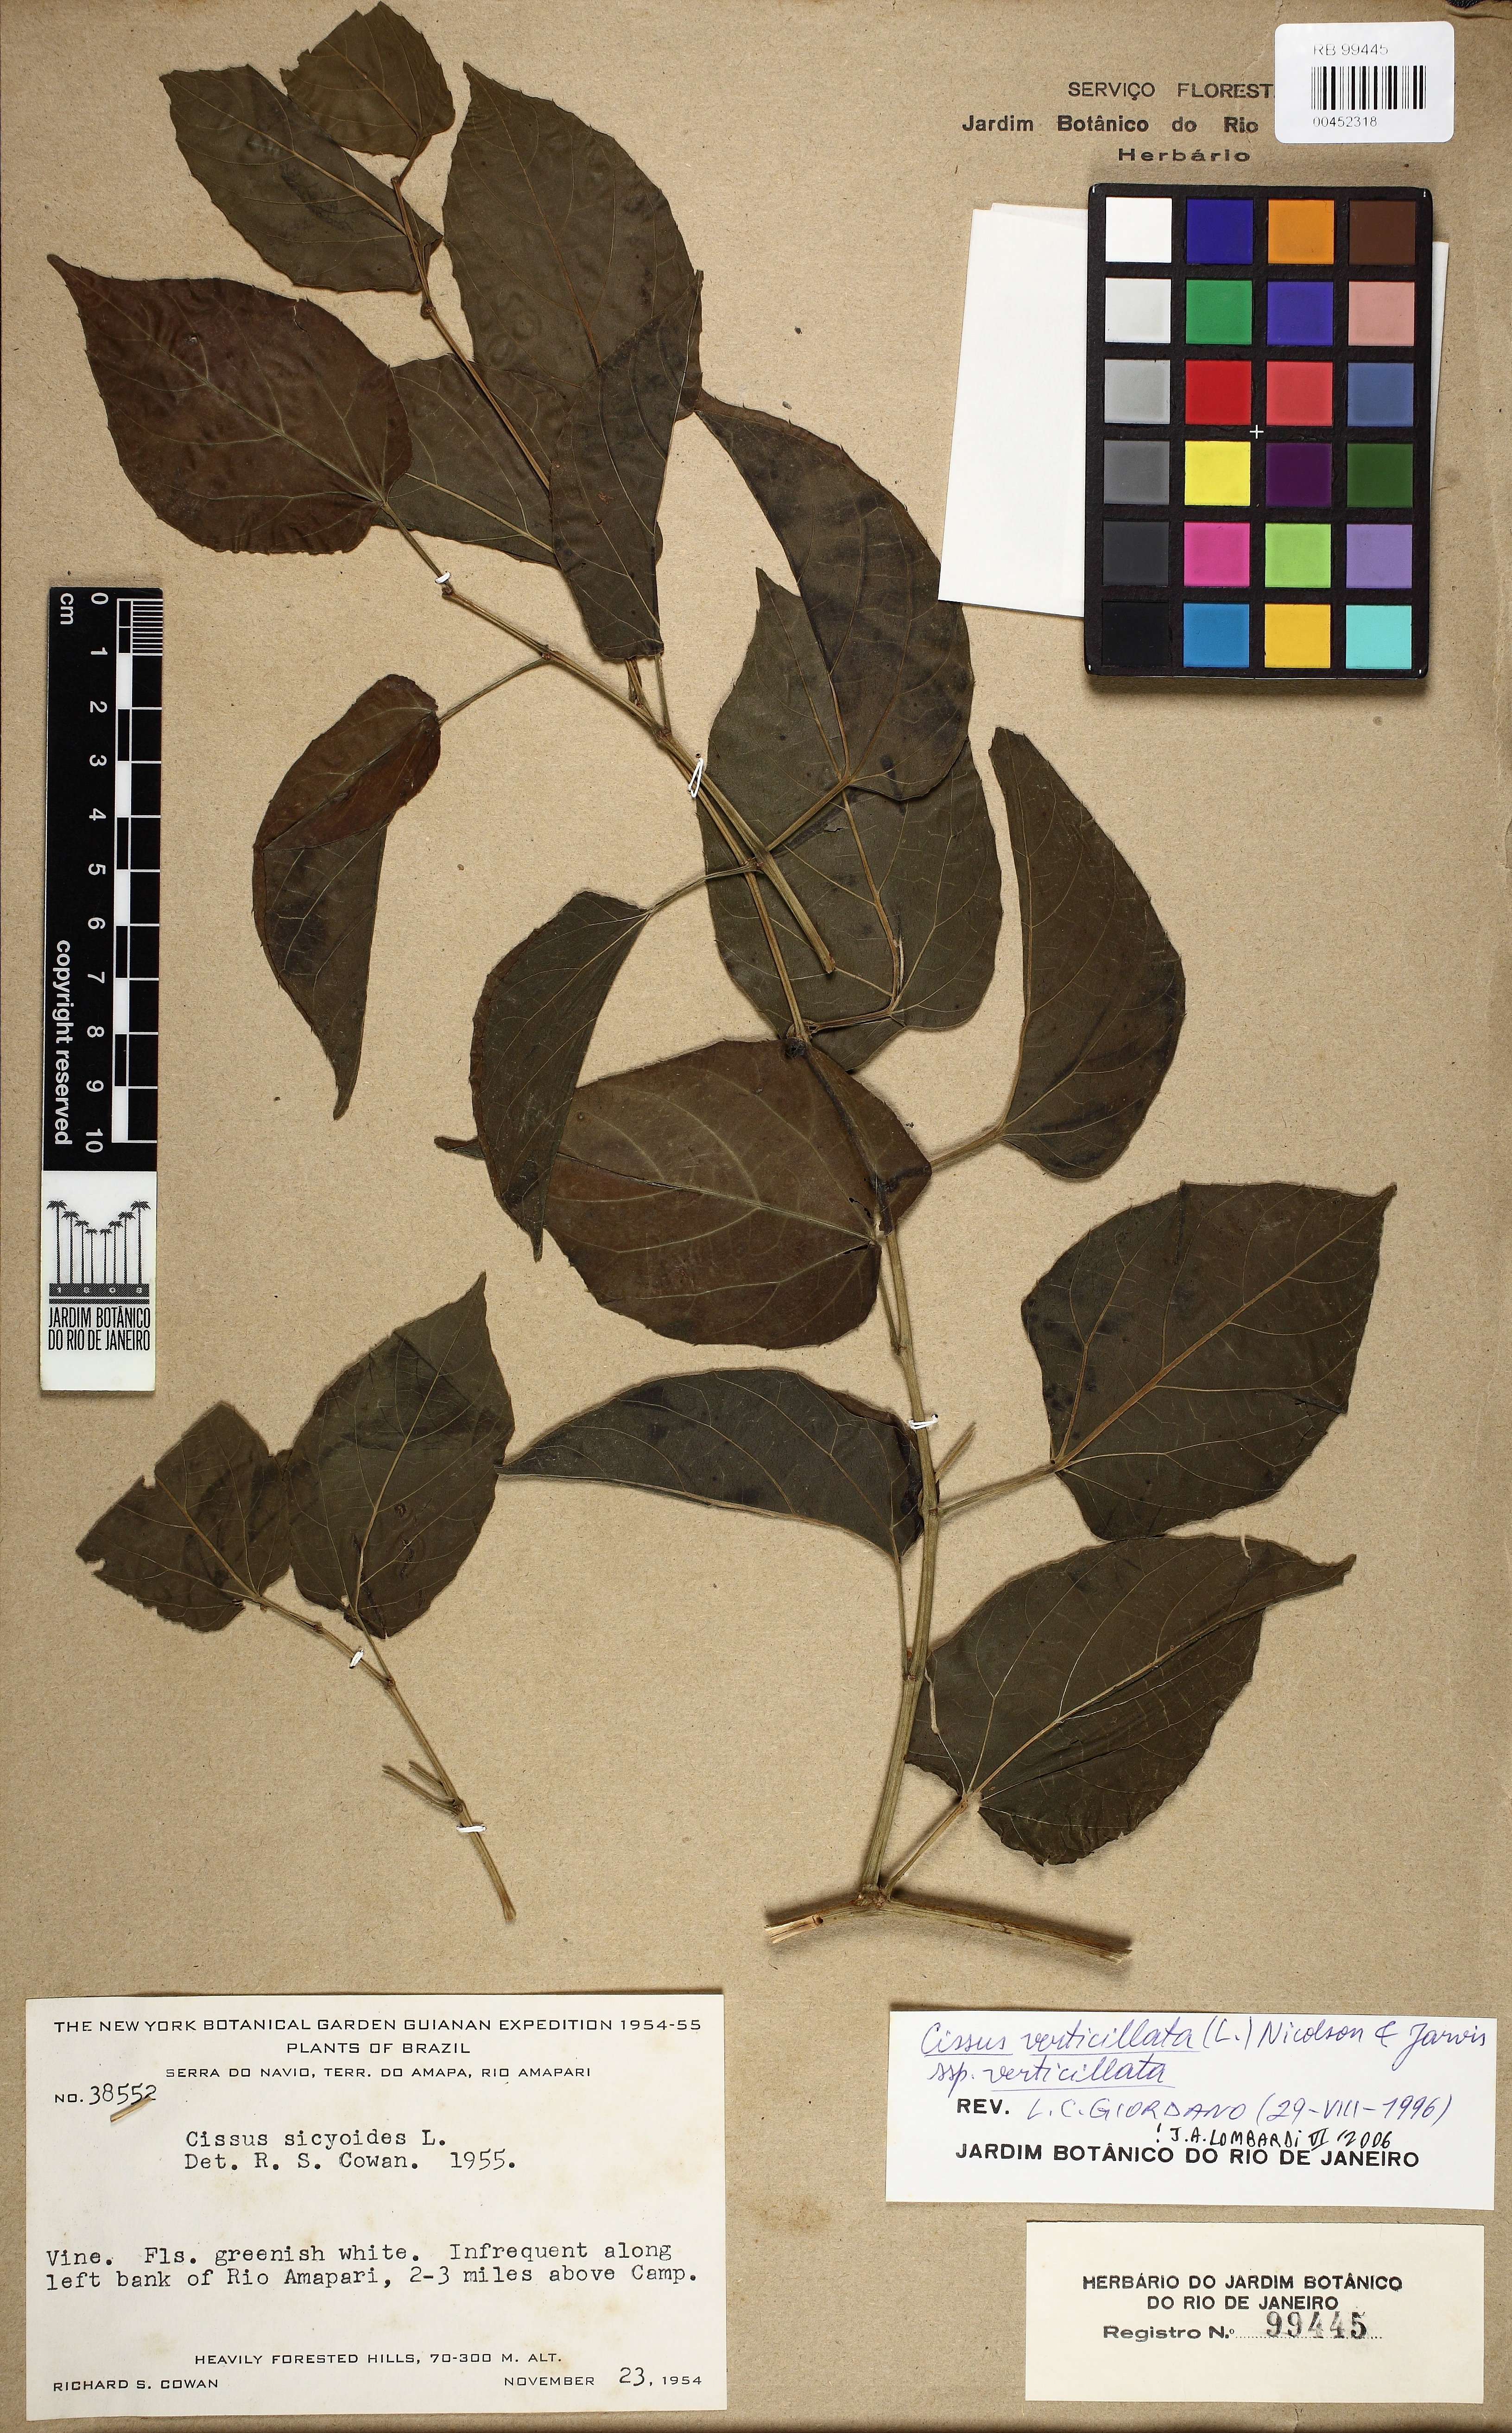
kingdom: Plantae
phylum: Tracheophyta
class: Magnoliopsida
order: Vitales
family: Vitaceae
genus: Cissus
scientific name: Cissus verticillata
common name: Princess vine
